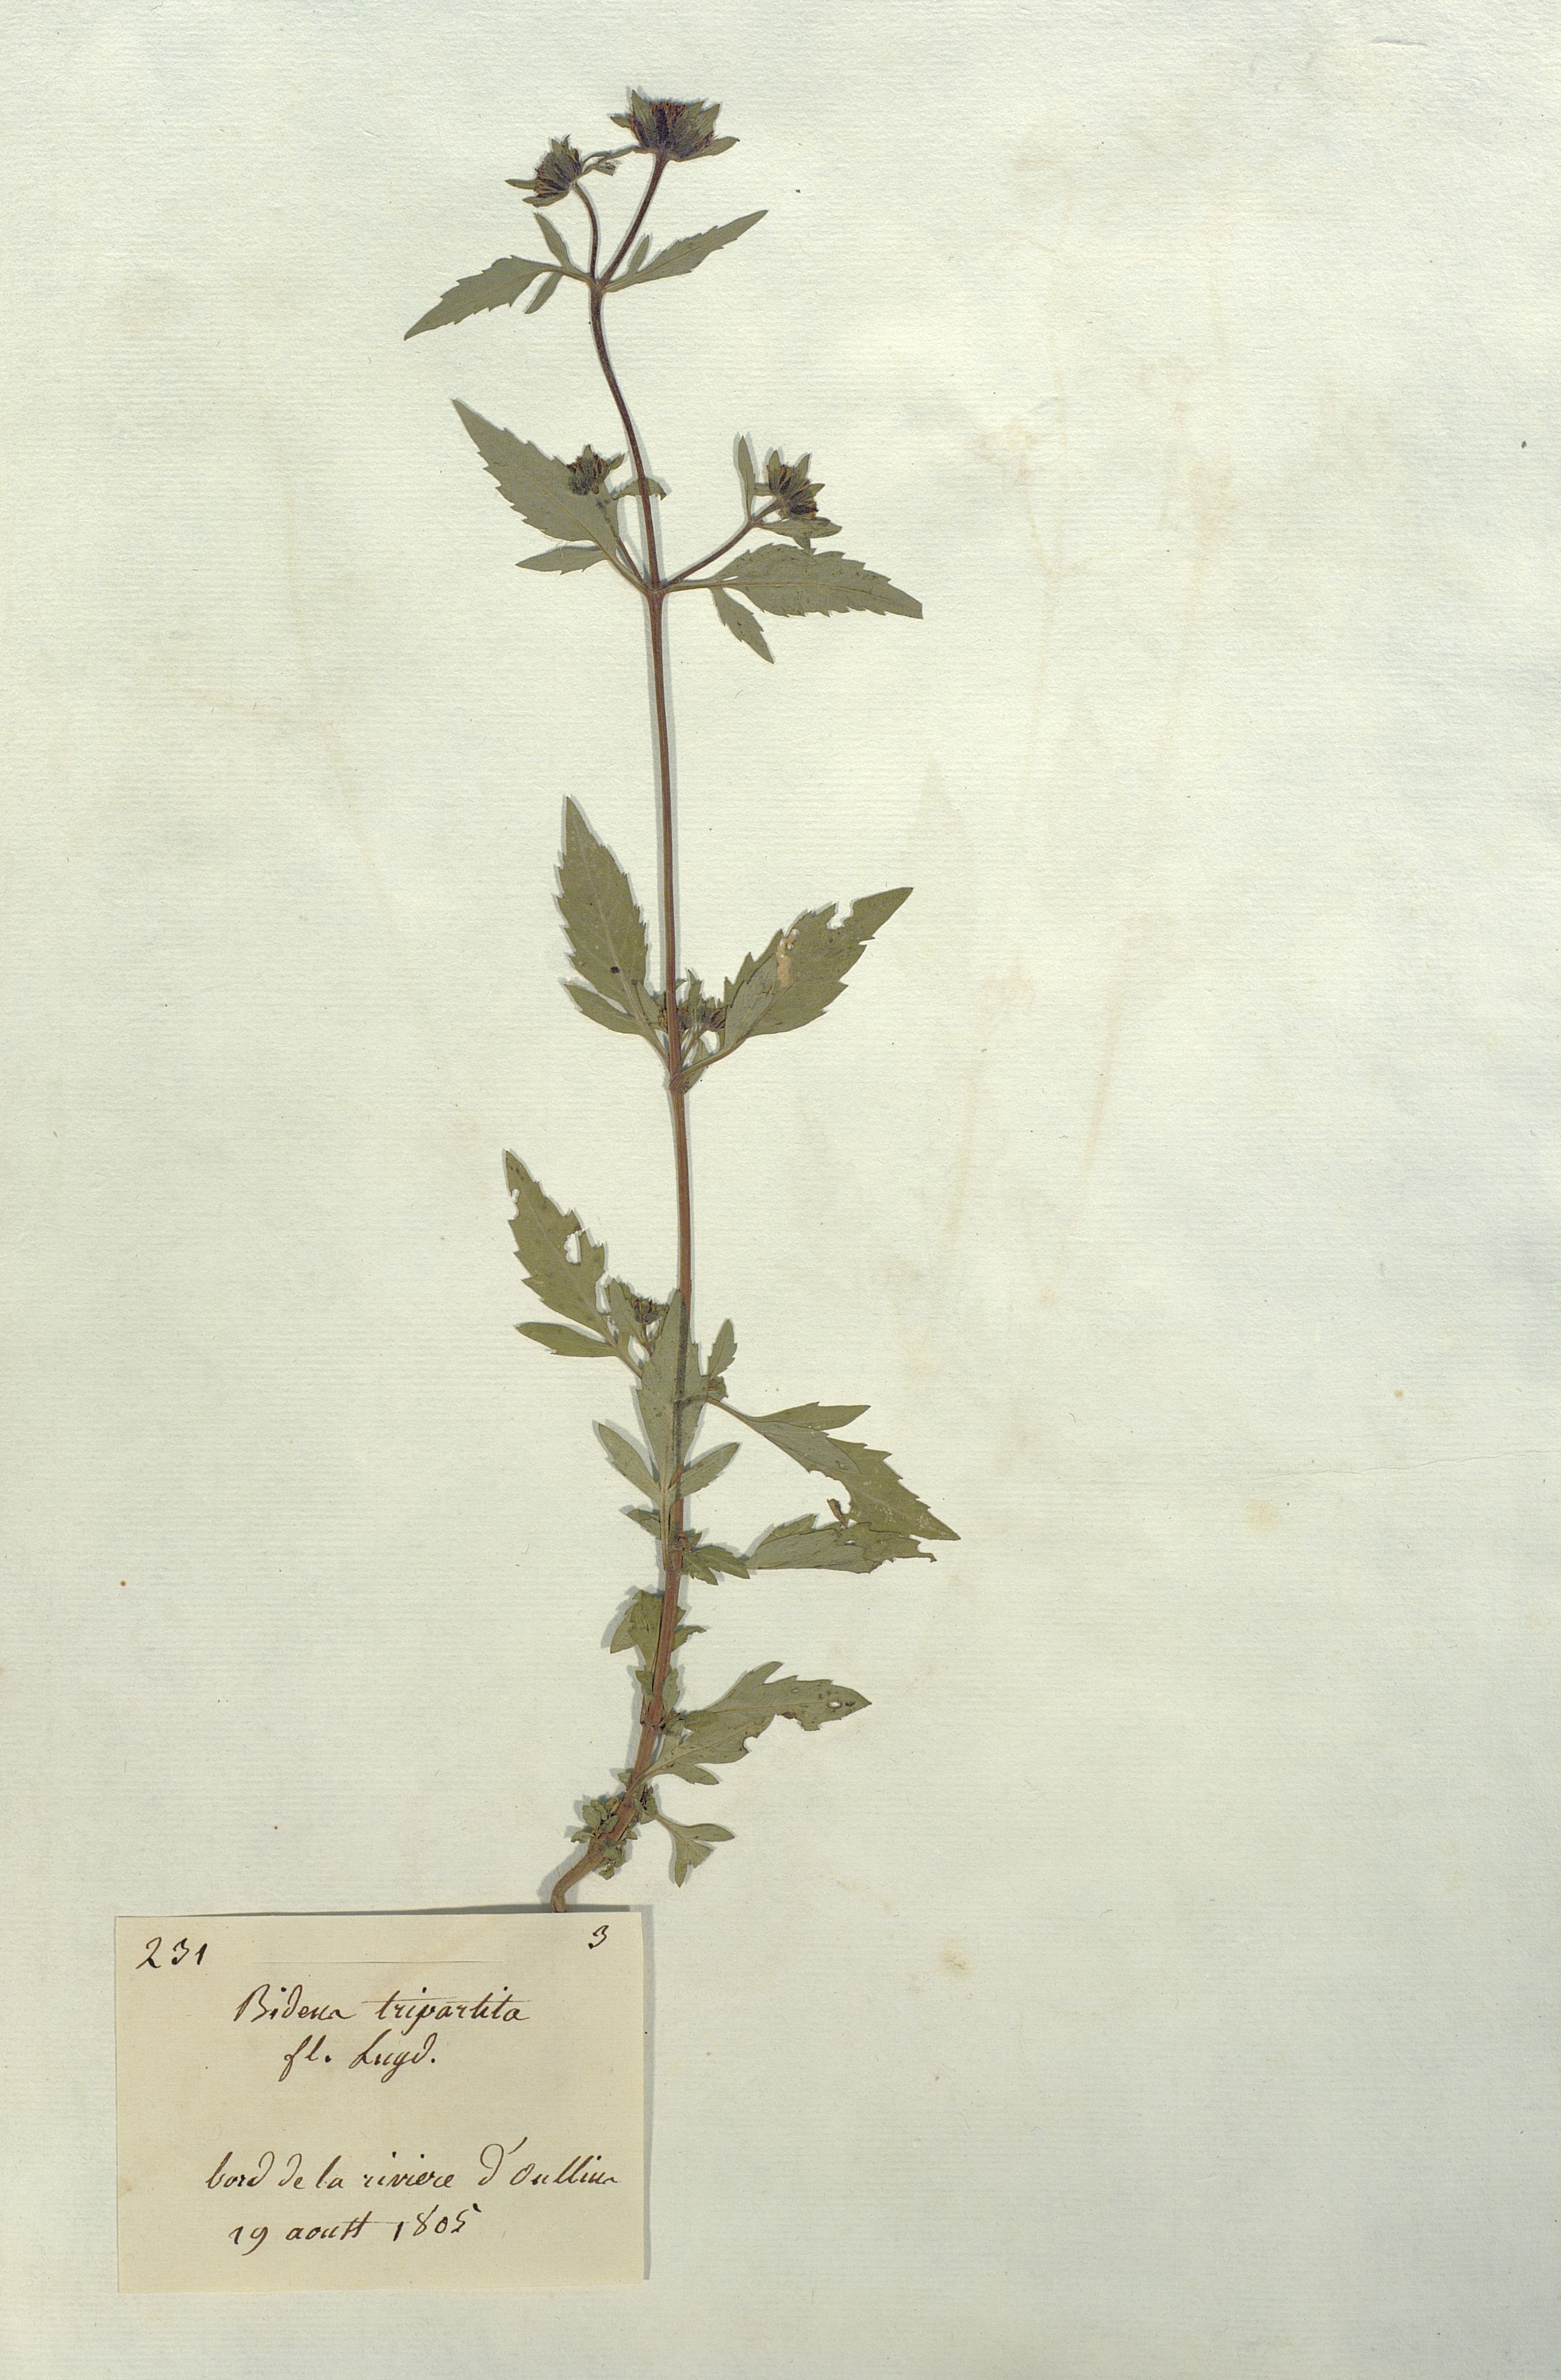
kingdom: Plantae
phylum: Tracheophyta
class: Magnoliopsida
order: Asterales
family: Asteraceae
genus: Bidens
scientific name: Bidens tripartita
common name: Trifid bur-marigold
